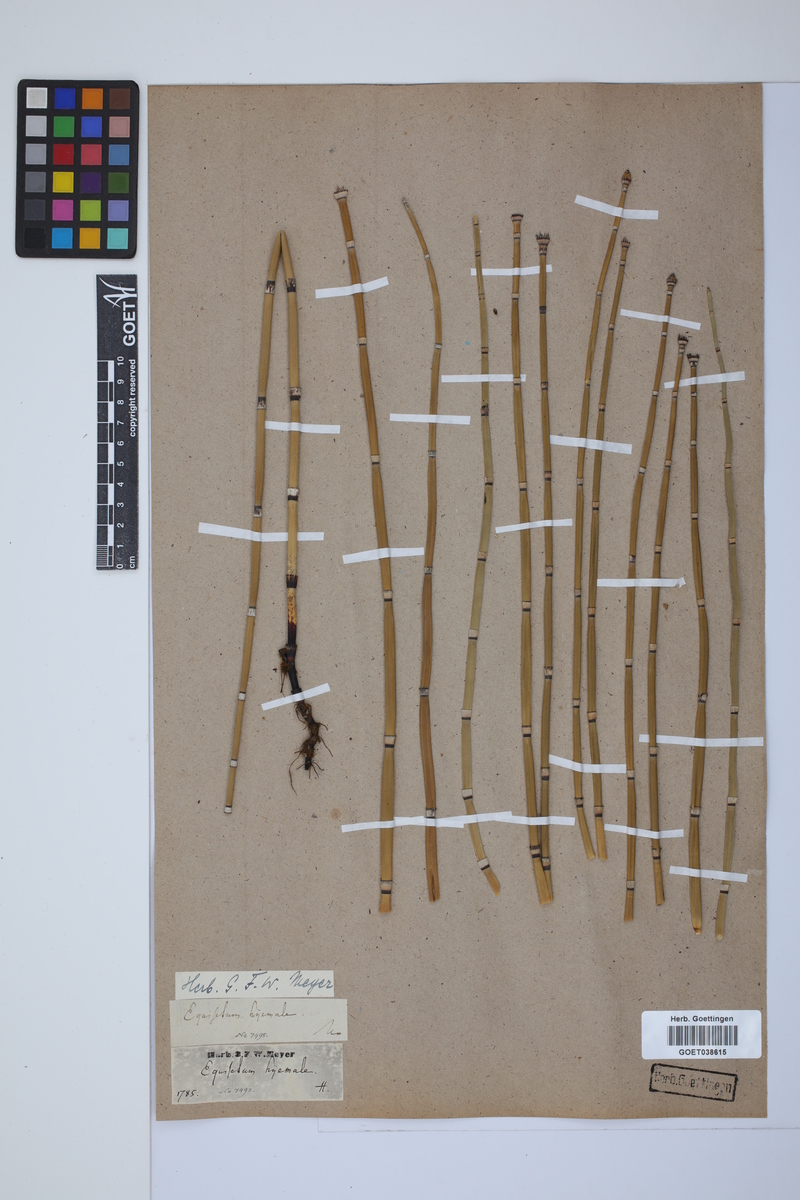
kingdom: Plantae
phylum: Tracheophyta
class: Polypodiopsida
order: Equisetales
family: Equisetaceae
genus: Equisetum
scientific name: Equisetum hyemale
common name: Rough horsetail
